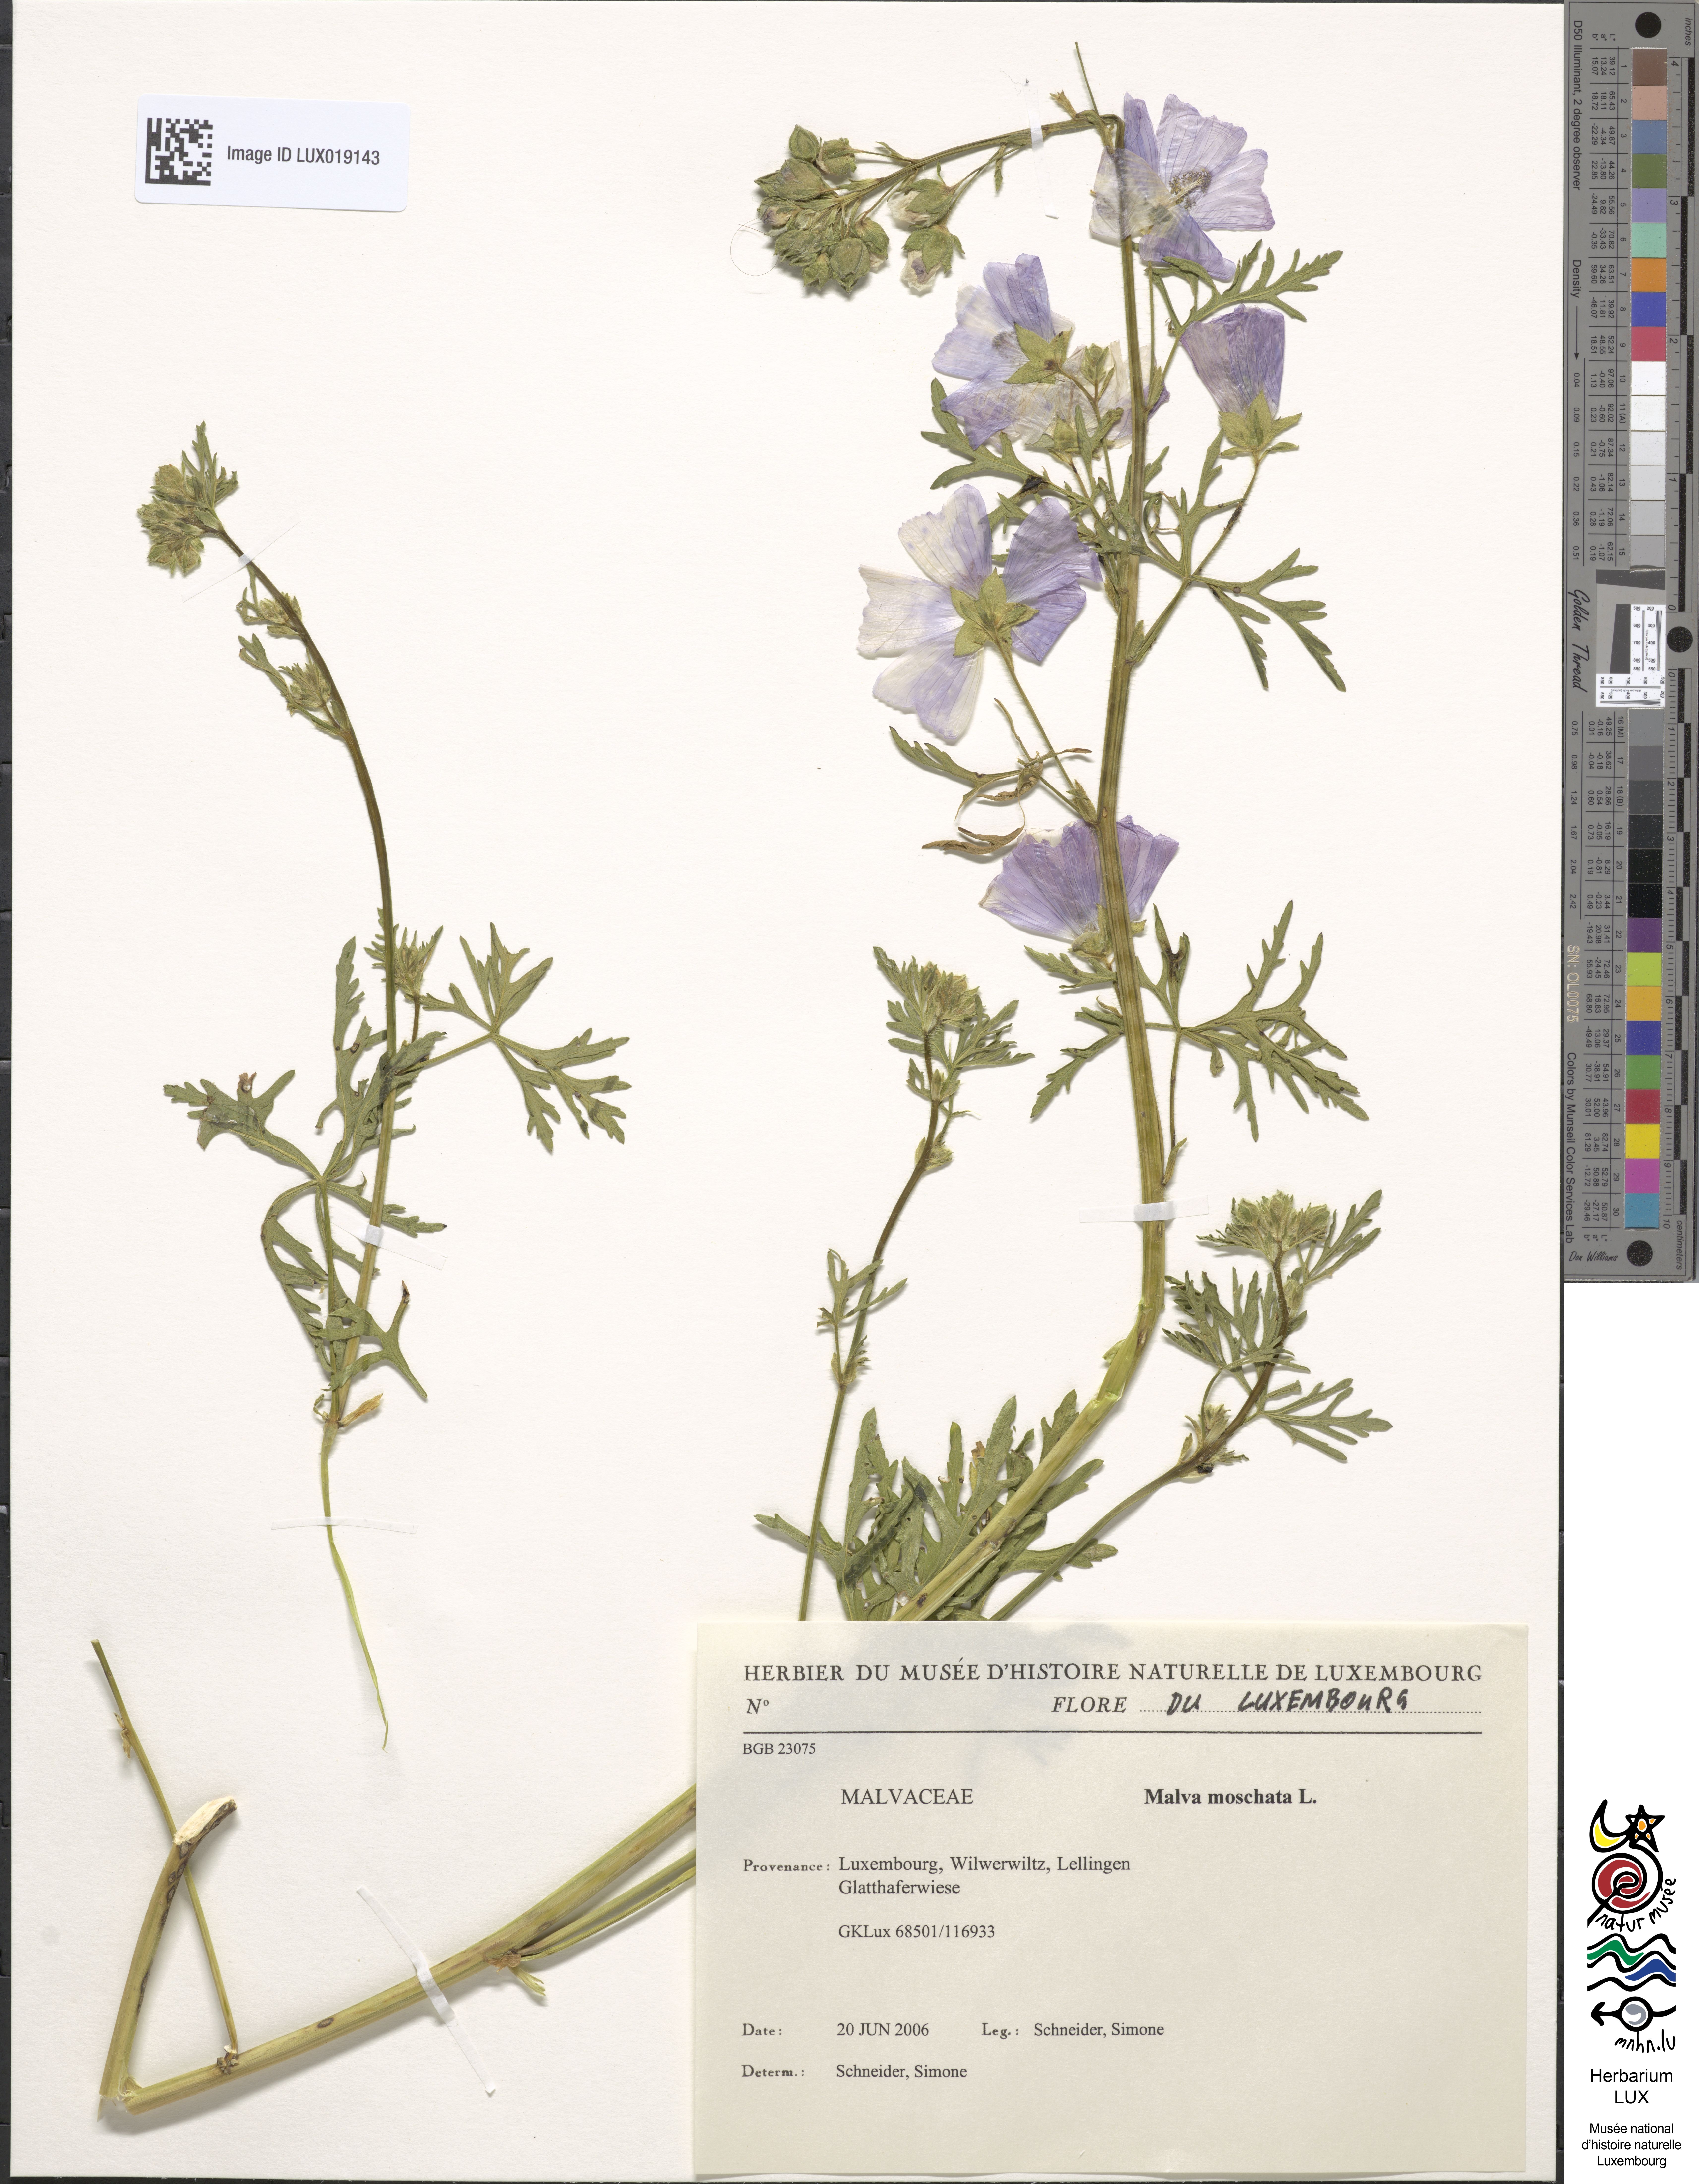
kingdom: Plantae
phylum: Tracheophyta
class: Magnoliopsida
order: Malvales
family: Malvaceae
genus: Malva
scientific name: Malva moschata
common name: Musk mallow
